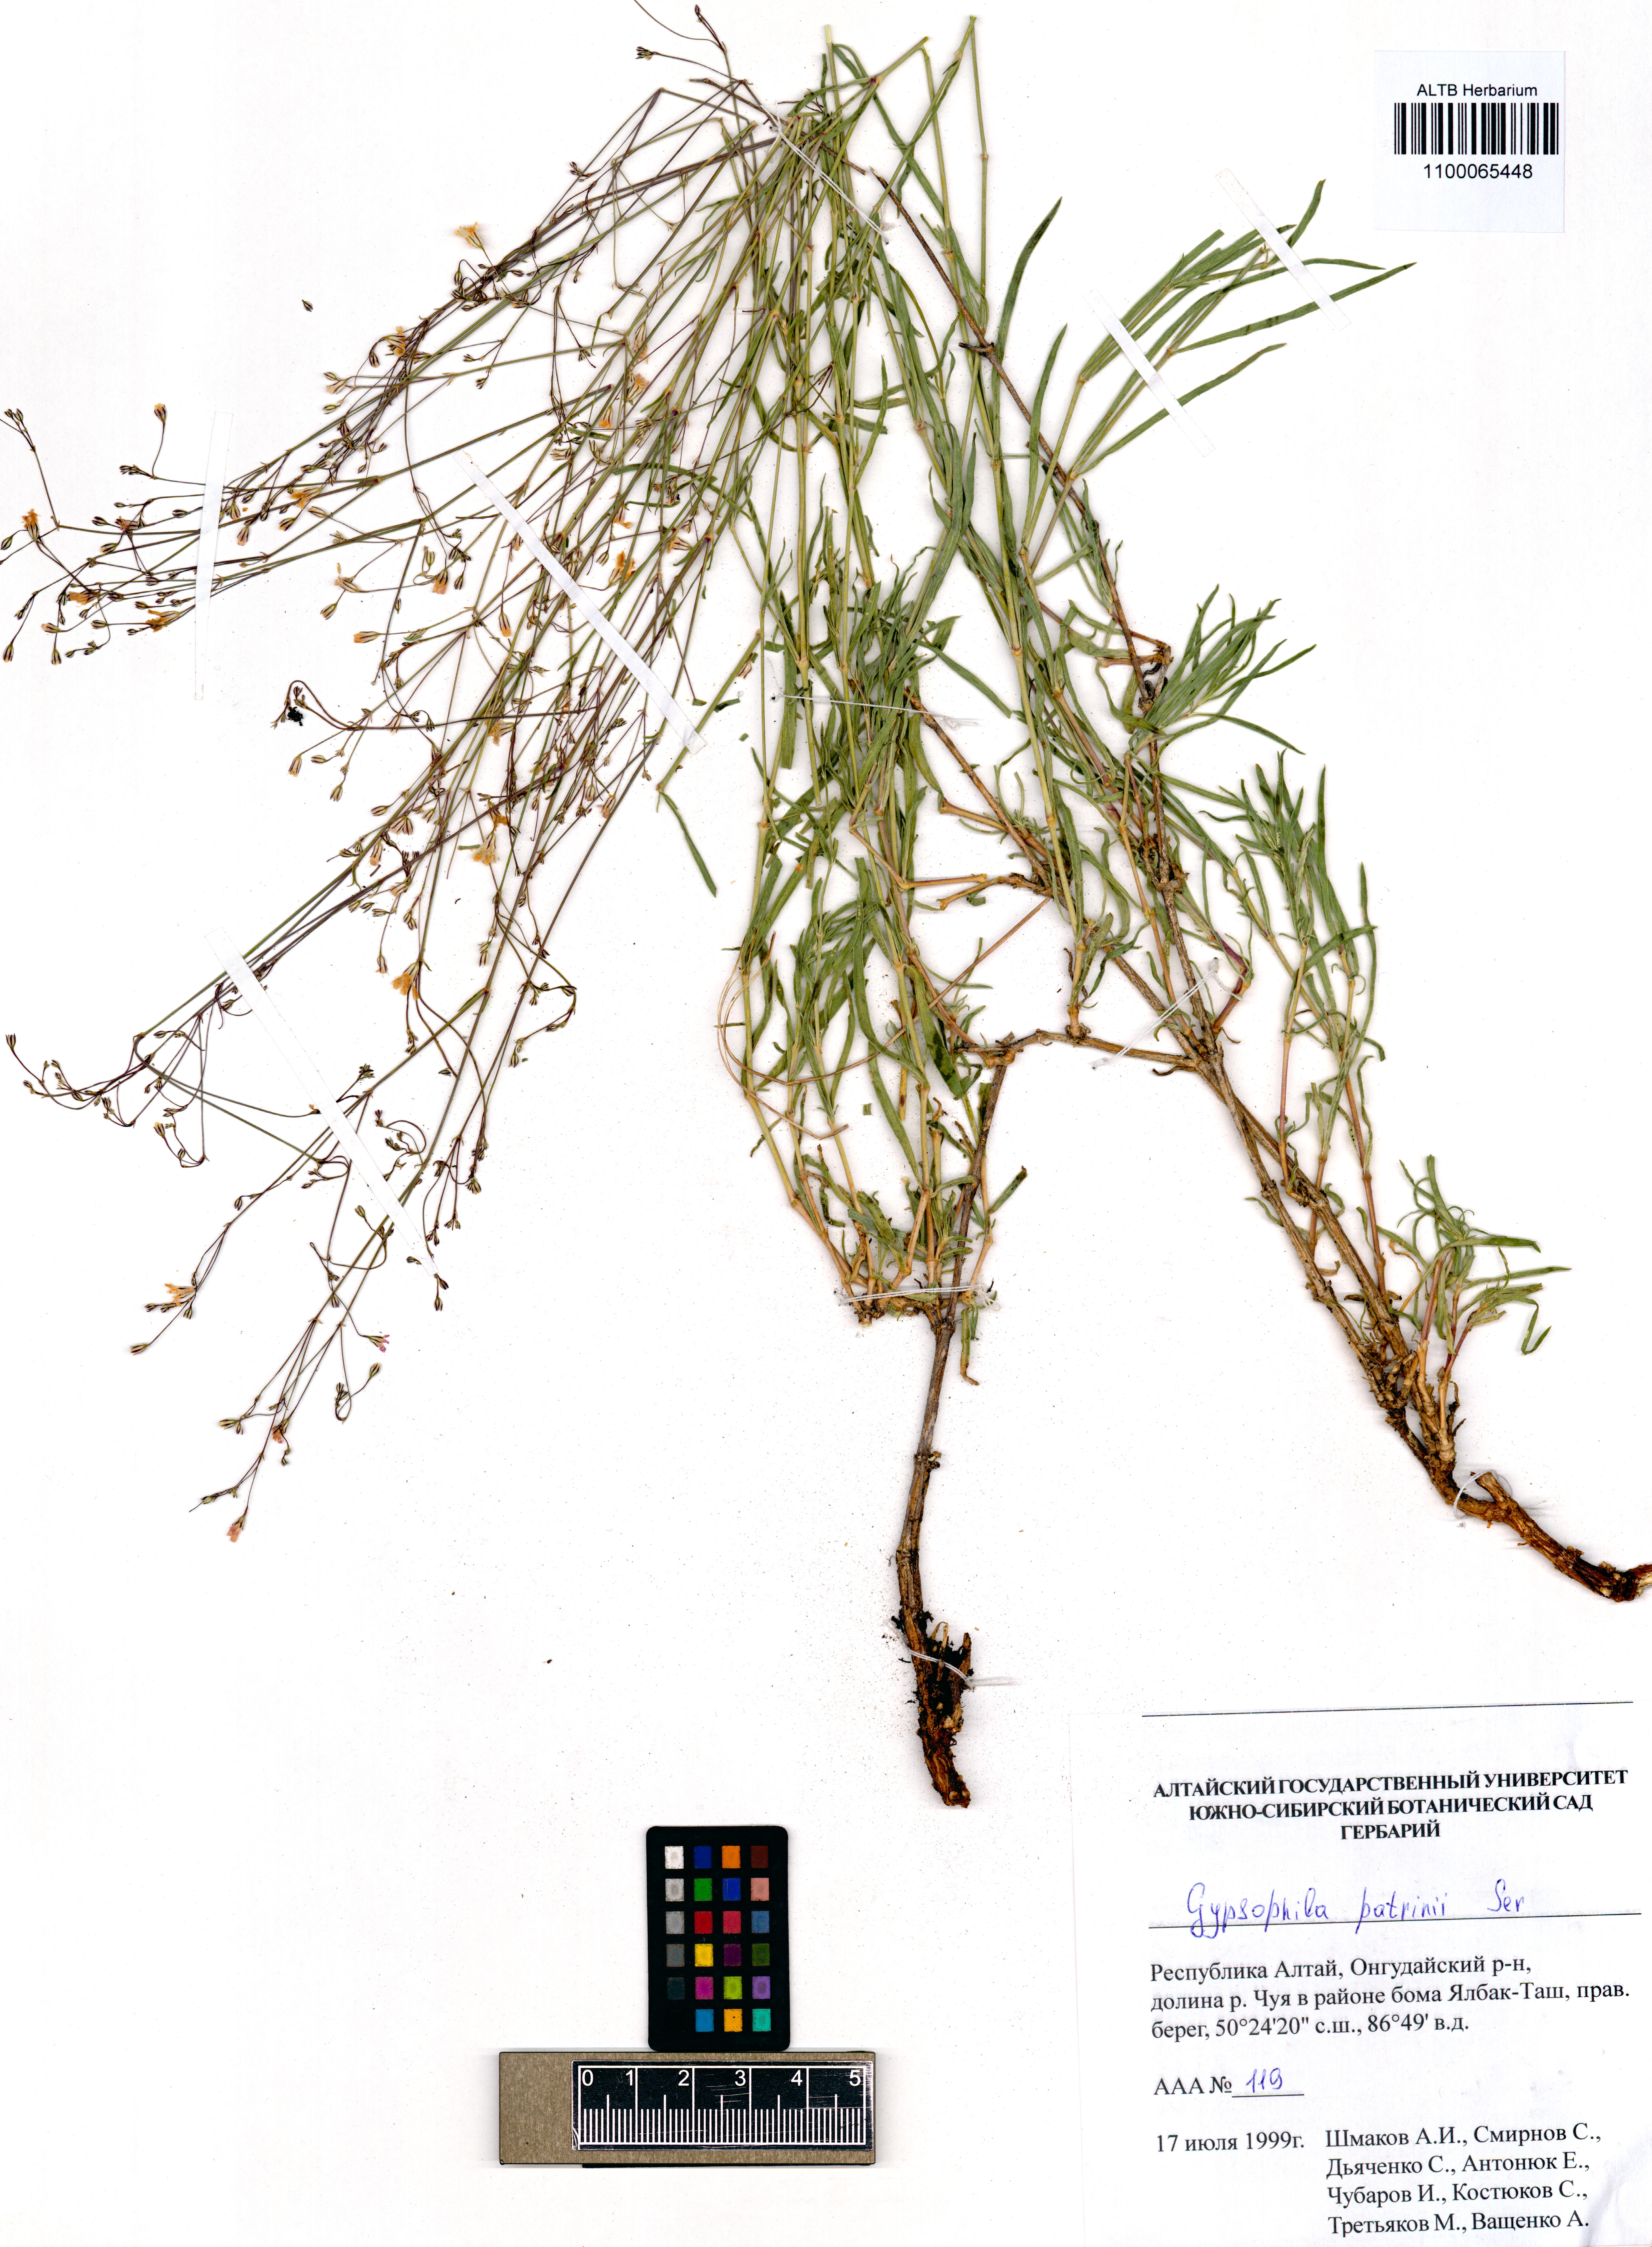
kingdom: Plantae
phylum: Tracheophyta
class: Magnoliopsida
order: Caryophyllales
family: Caryophyllaceae
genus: Gypsophila
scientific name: Gypsophila patrinii
